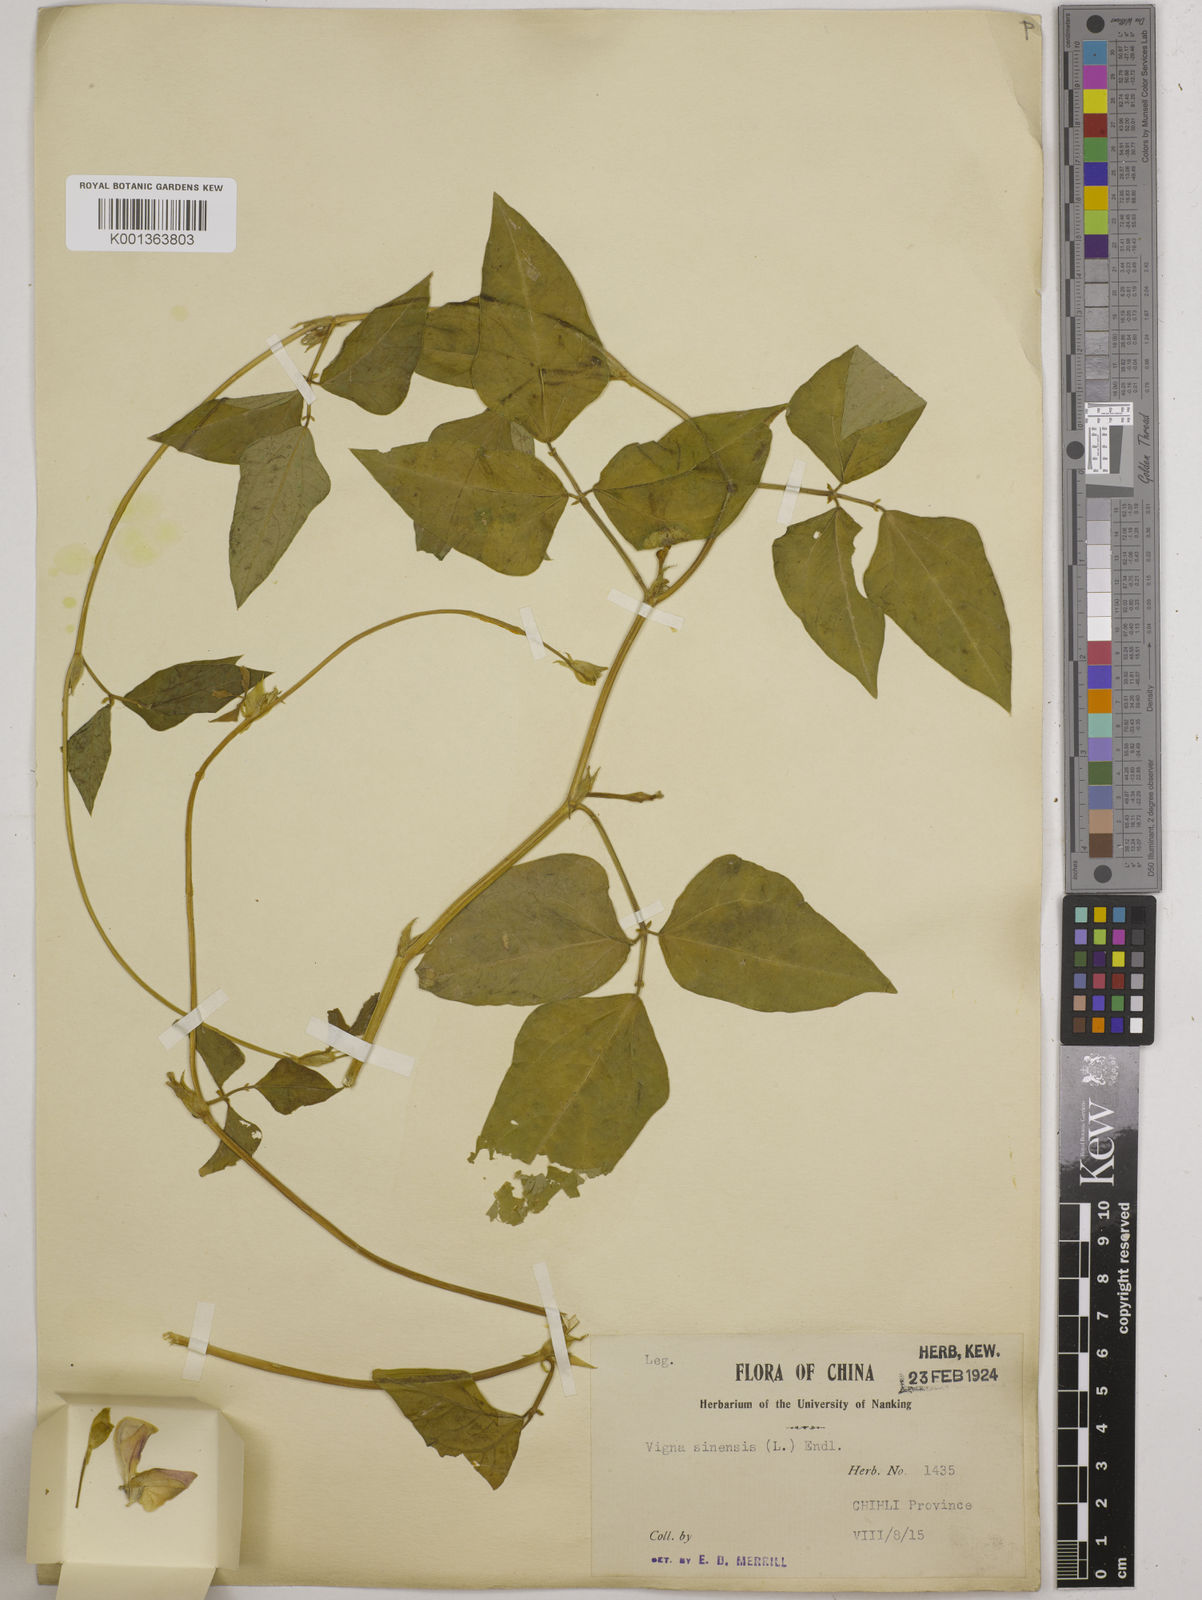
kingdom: Plantae
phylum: Tracheophyta
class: Magnoliopsida
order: Fabales
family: Fabaceae
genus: Vigna
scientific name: Vigna
